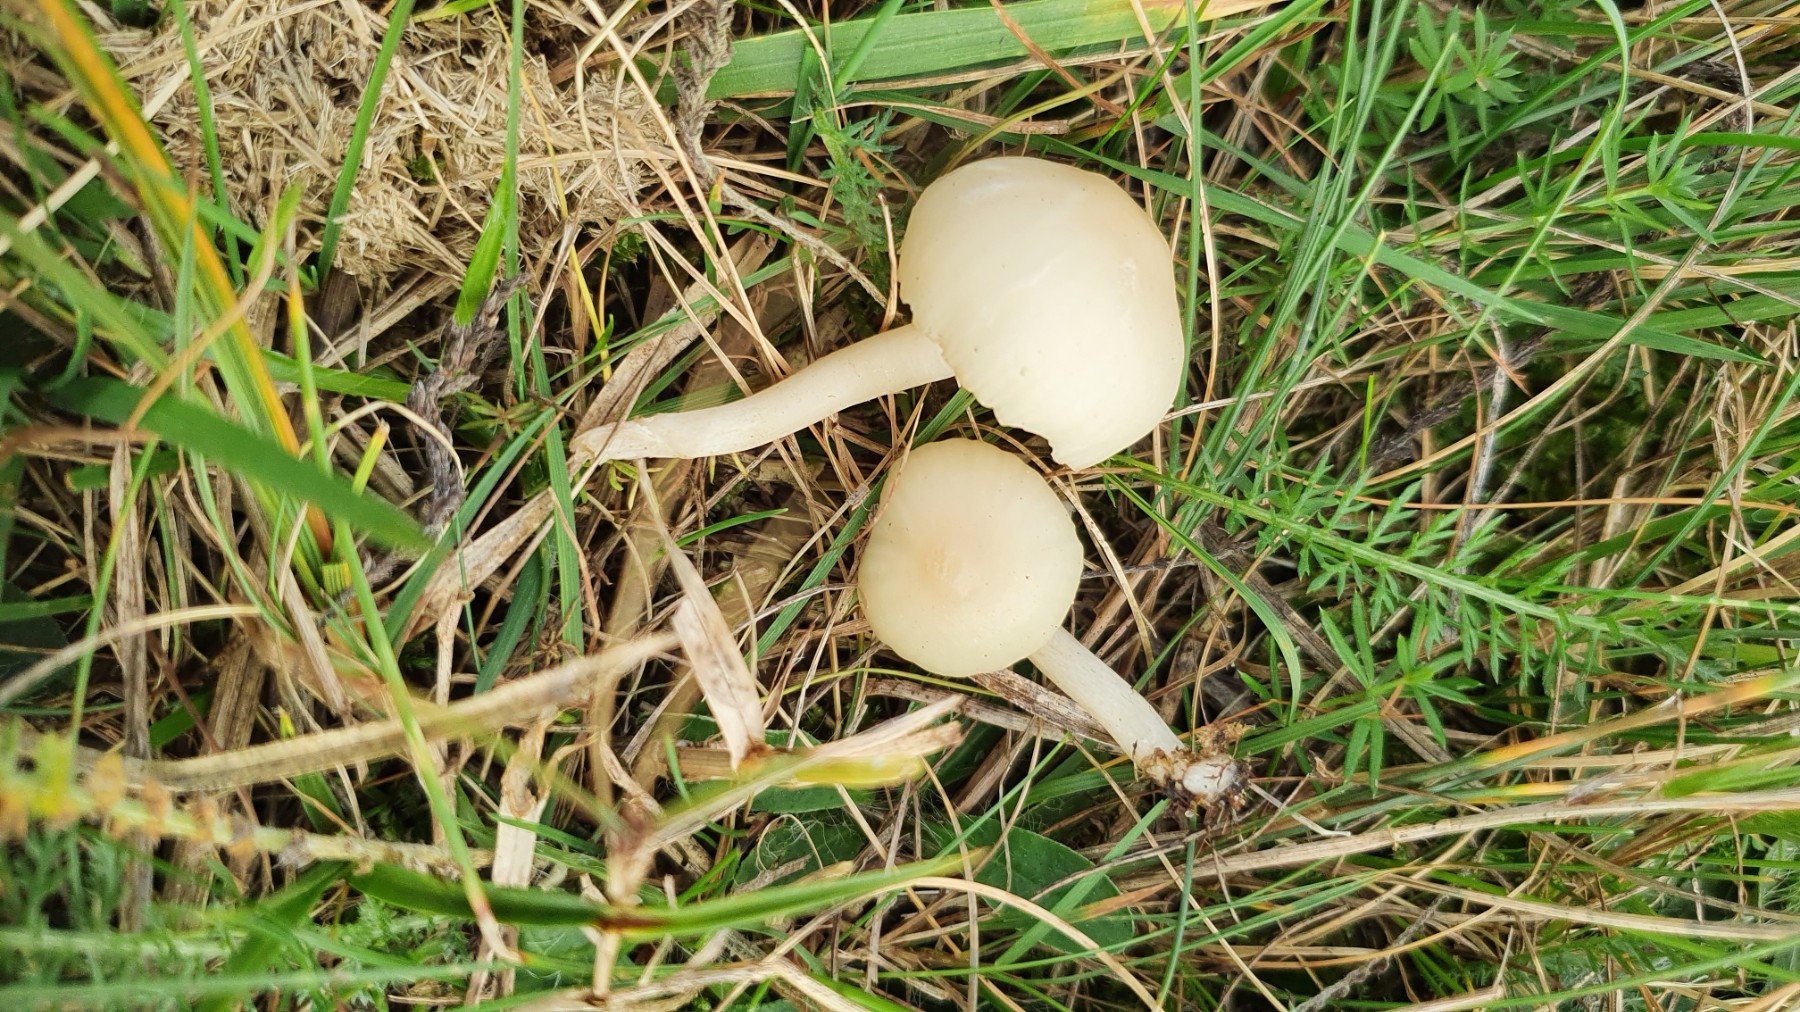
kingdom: Fungi
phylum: Basidiomycota
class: Agaricomycetes
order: Agaricales
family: Hygrophoraceae
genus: Cuphophyllus
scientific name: Cuphophyllus russocoriaceus
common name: ruslæder-vokshat
